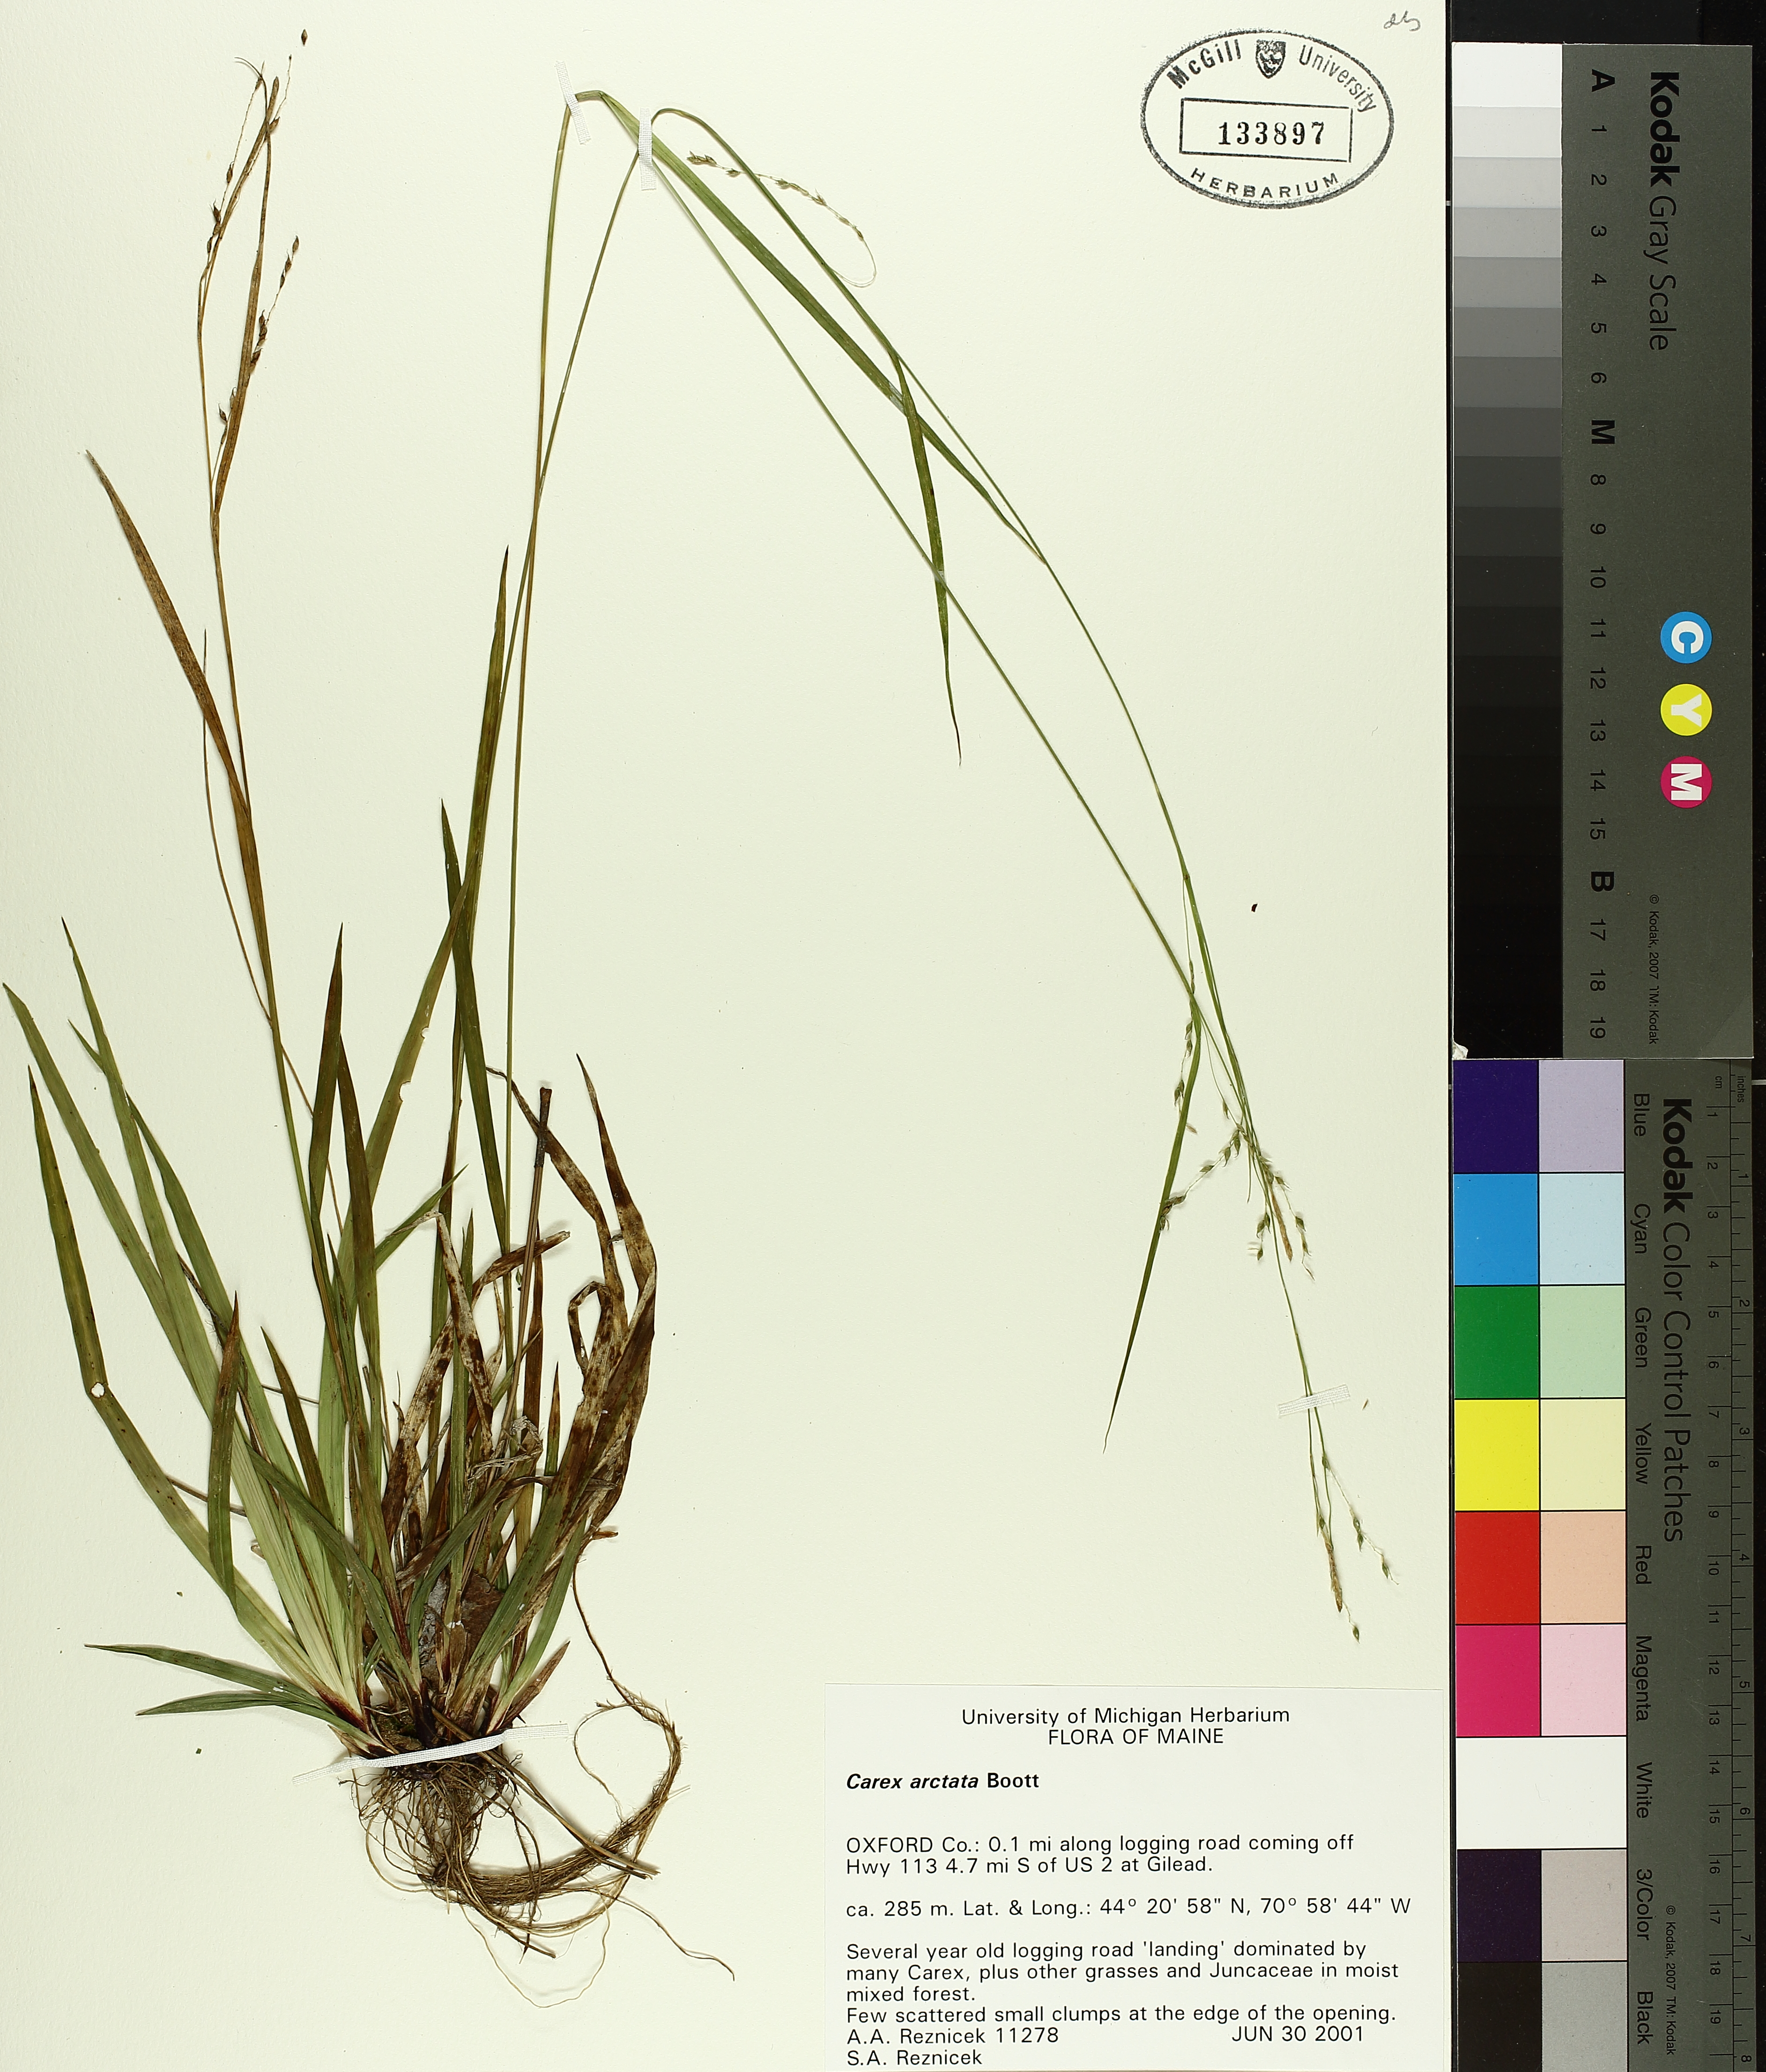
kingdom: Plantae
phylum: Tracheophyta
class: Liliopsida
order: Poales
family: Cyperaceae
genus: Carex
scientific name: Carex arctata
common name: Black sedge
